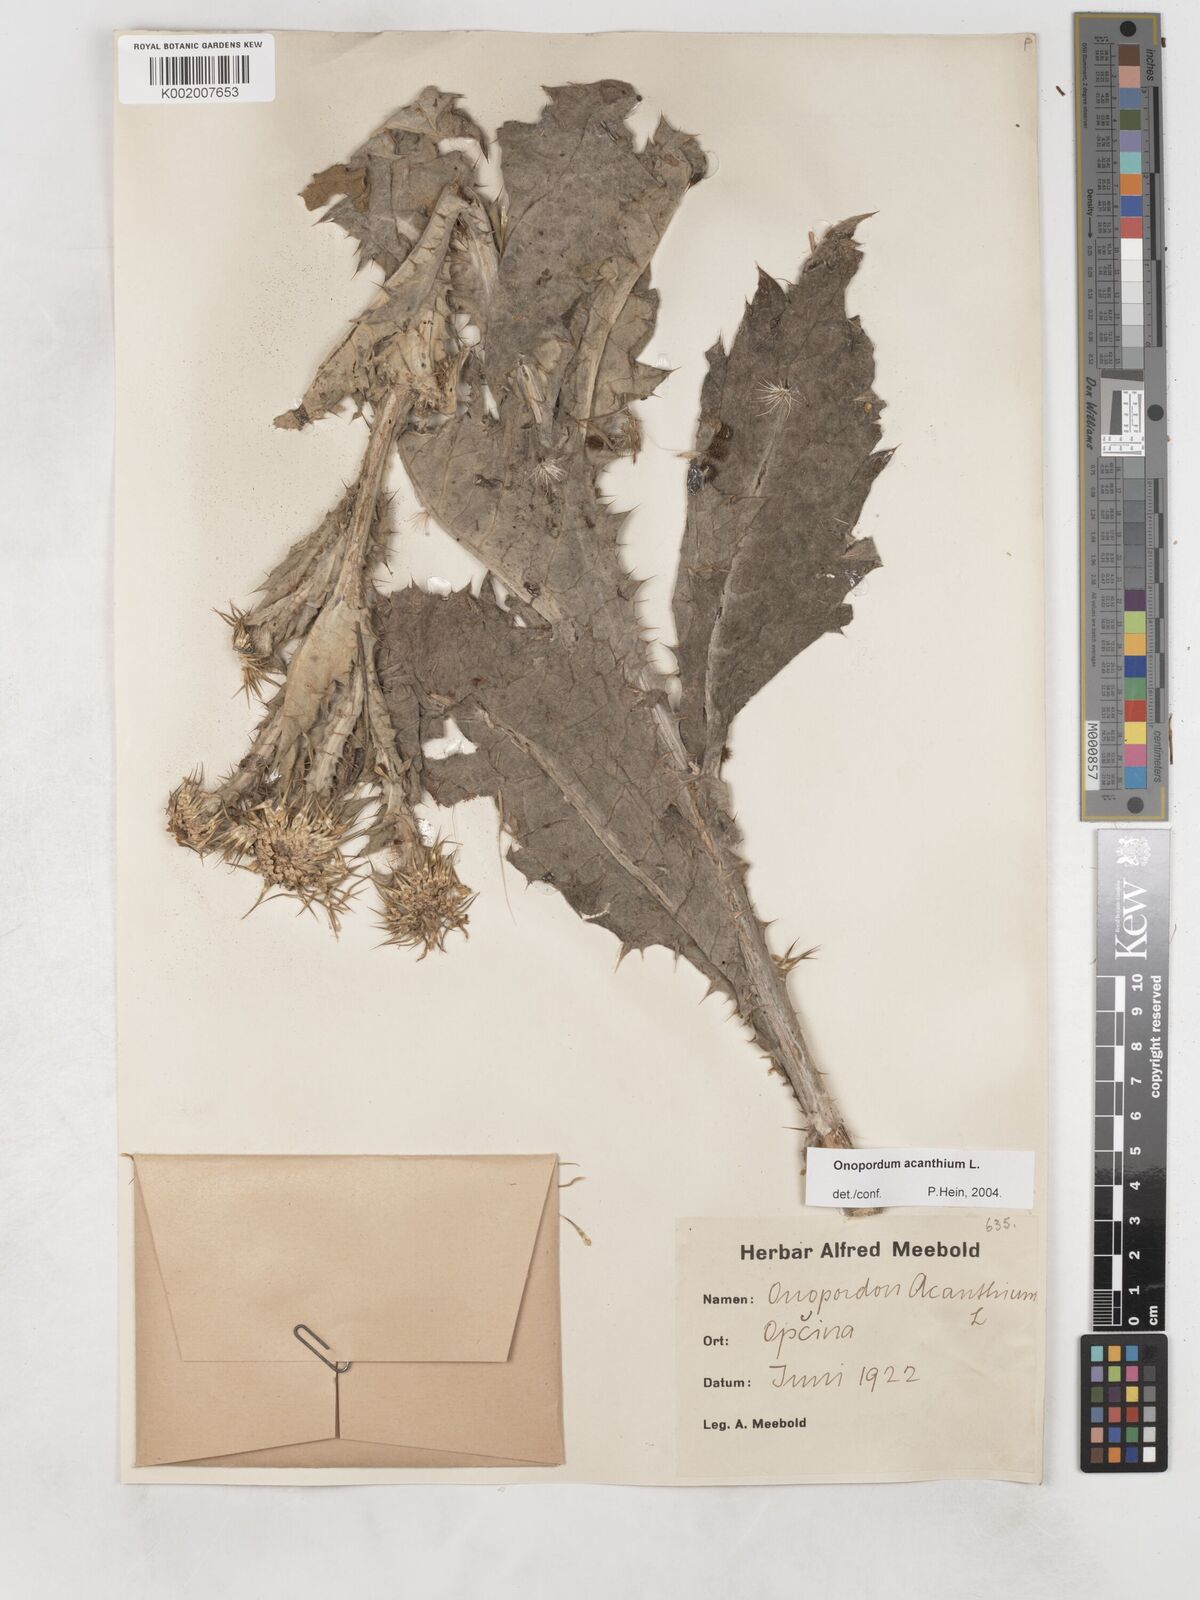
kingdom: Plantae
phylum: Tracheophyta
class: Magnoliopsida
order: Asterales
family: Asteraceae
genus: Onopordum
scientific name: Onopordum acanthium
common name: Scotch thistle
